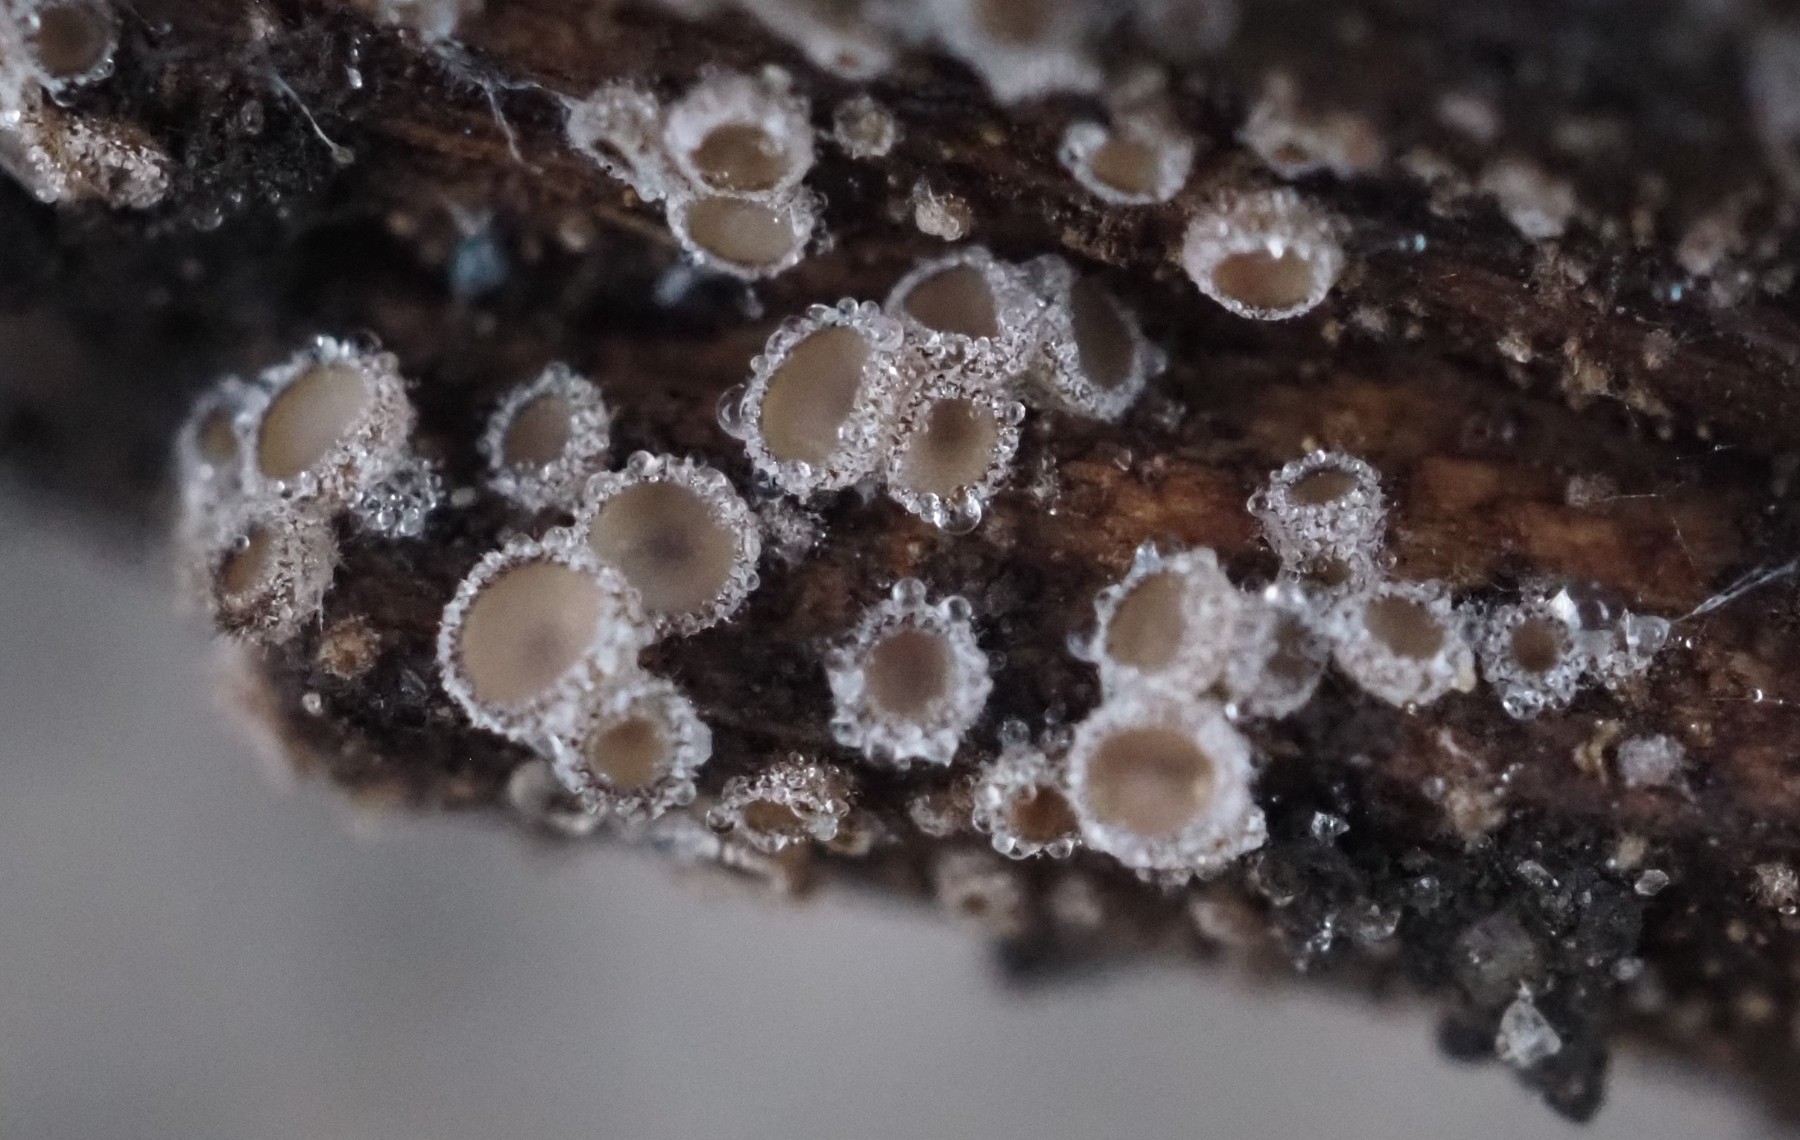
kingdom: Fungi
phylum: Ascomycota
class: Leotiomycetes
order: Helotiales
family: Solenopeziaceae
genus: Lasiobelonium
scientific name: Lasiobelonium variegatum
